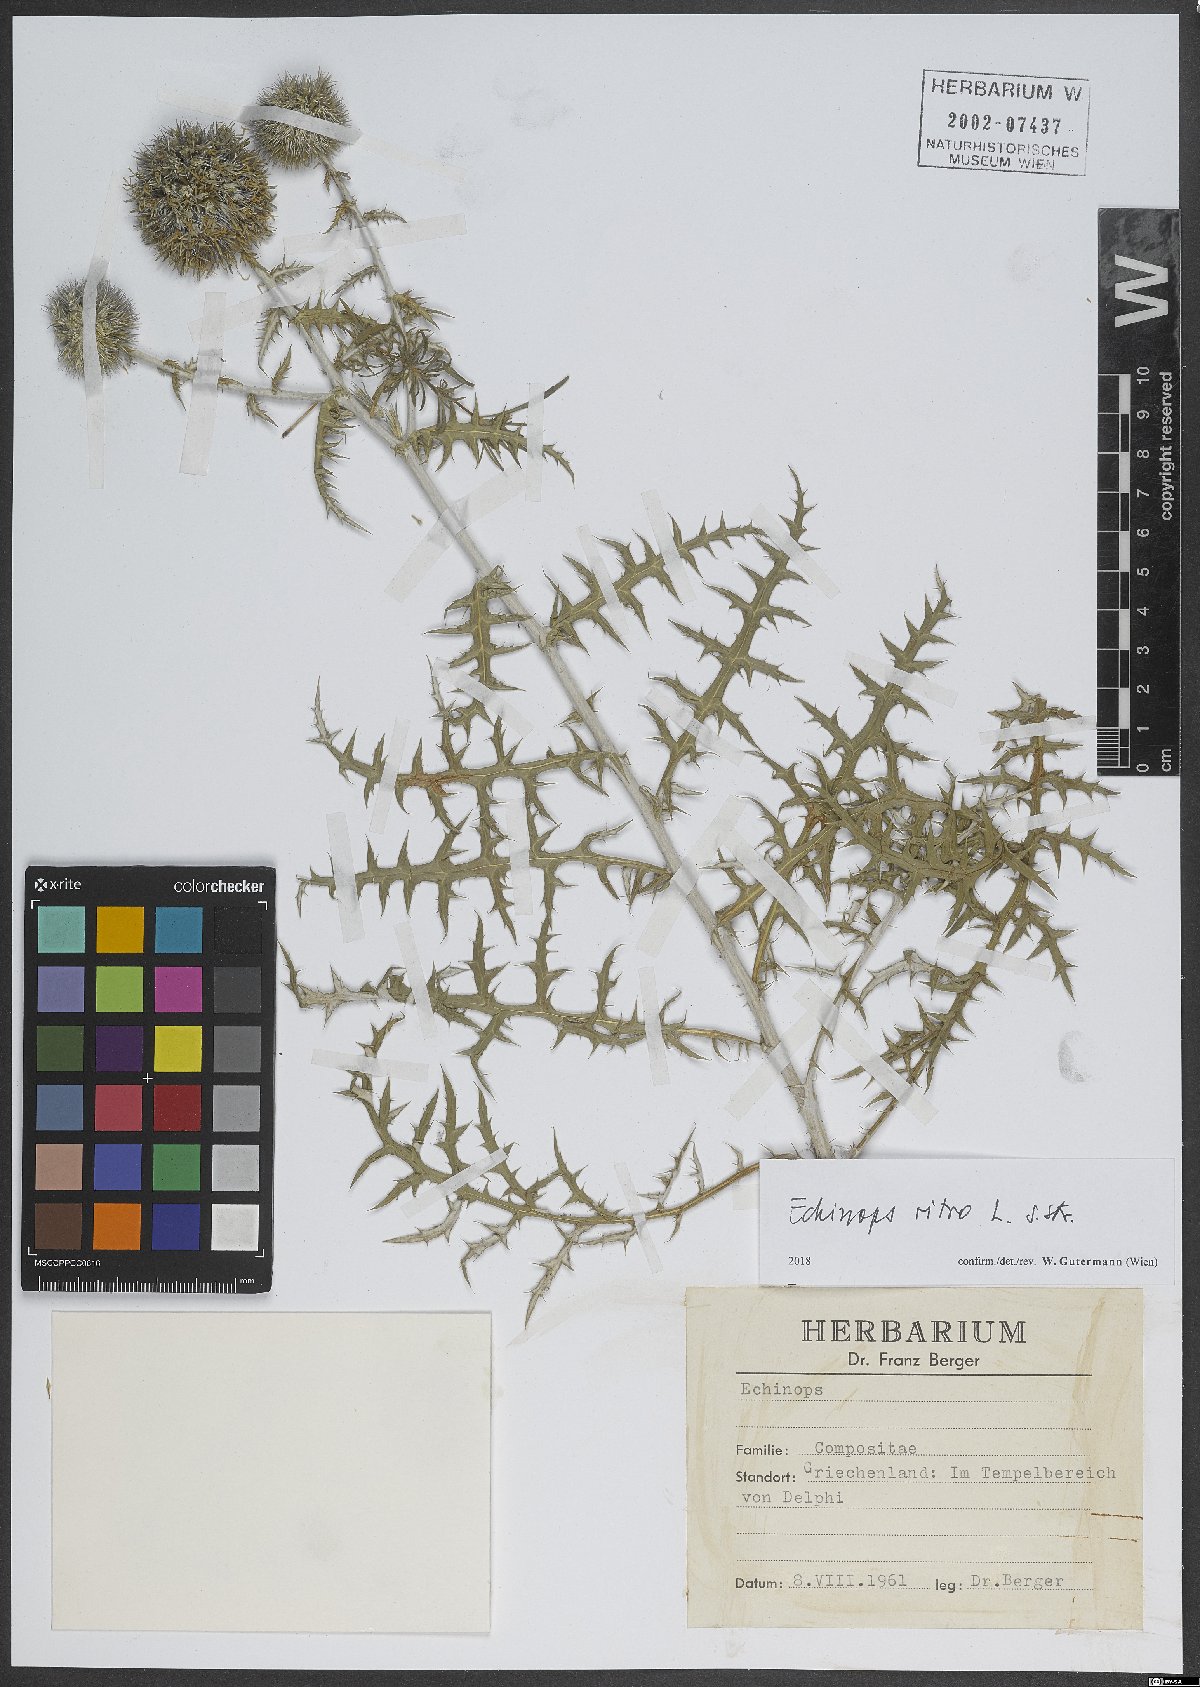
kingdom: Plantae
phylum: Tracheophyta
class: Magnoliopsida
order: Asterales
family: Asteraceae
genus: Echinops
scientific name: Echinops ritro
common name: Globe thistle
